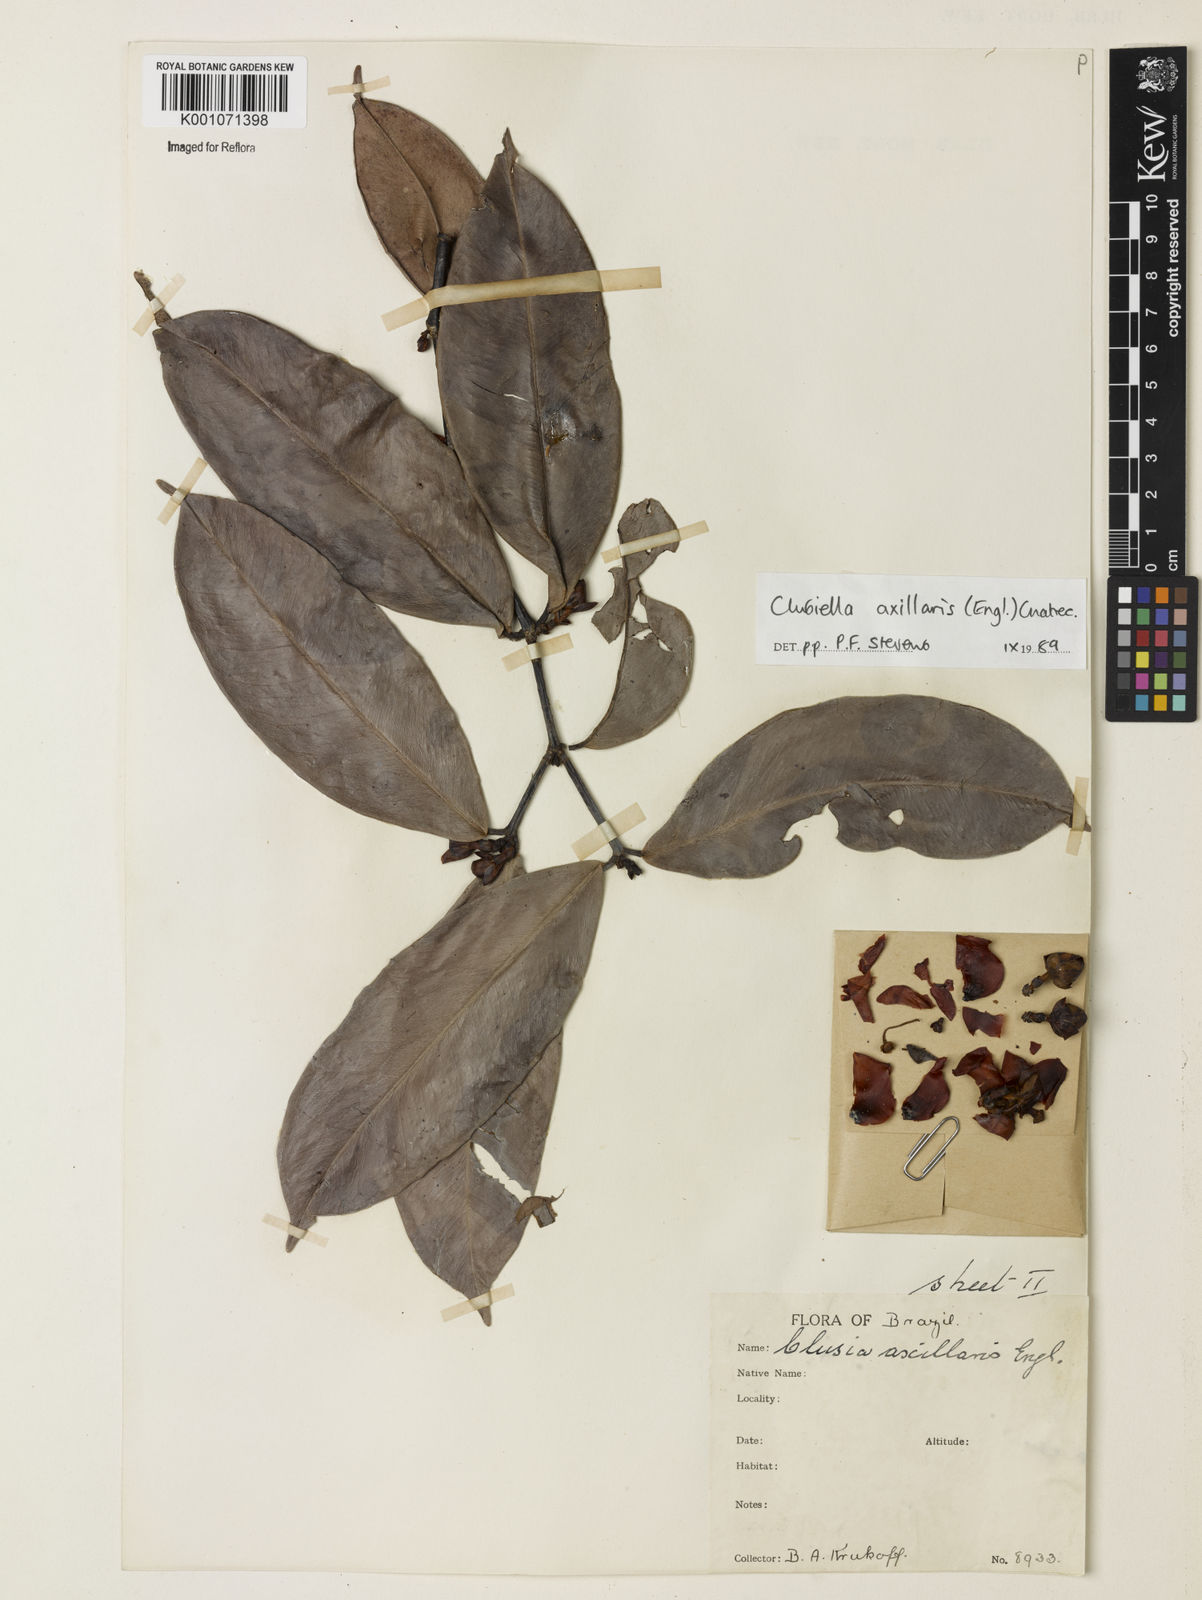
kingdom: Plantae
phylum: Tracheophyta
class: Magnoliopsida
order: Malpighiales
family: Calophyllaceae
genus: Clusiella
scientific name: Clusiella axillaris
